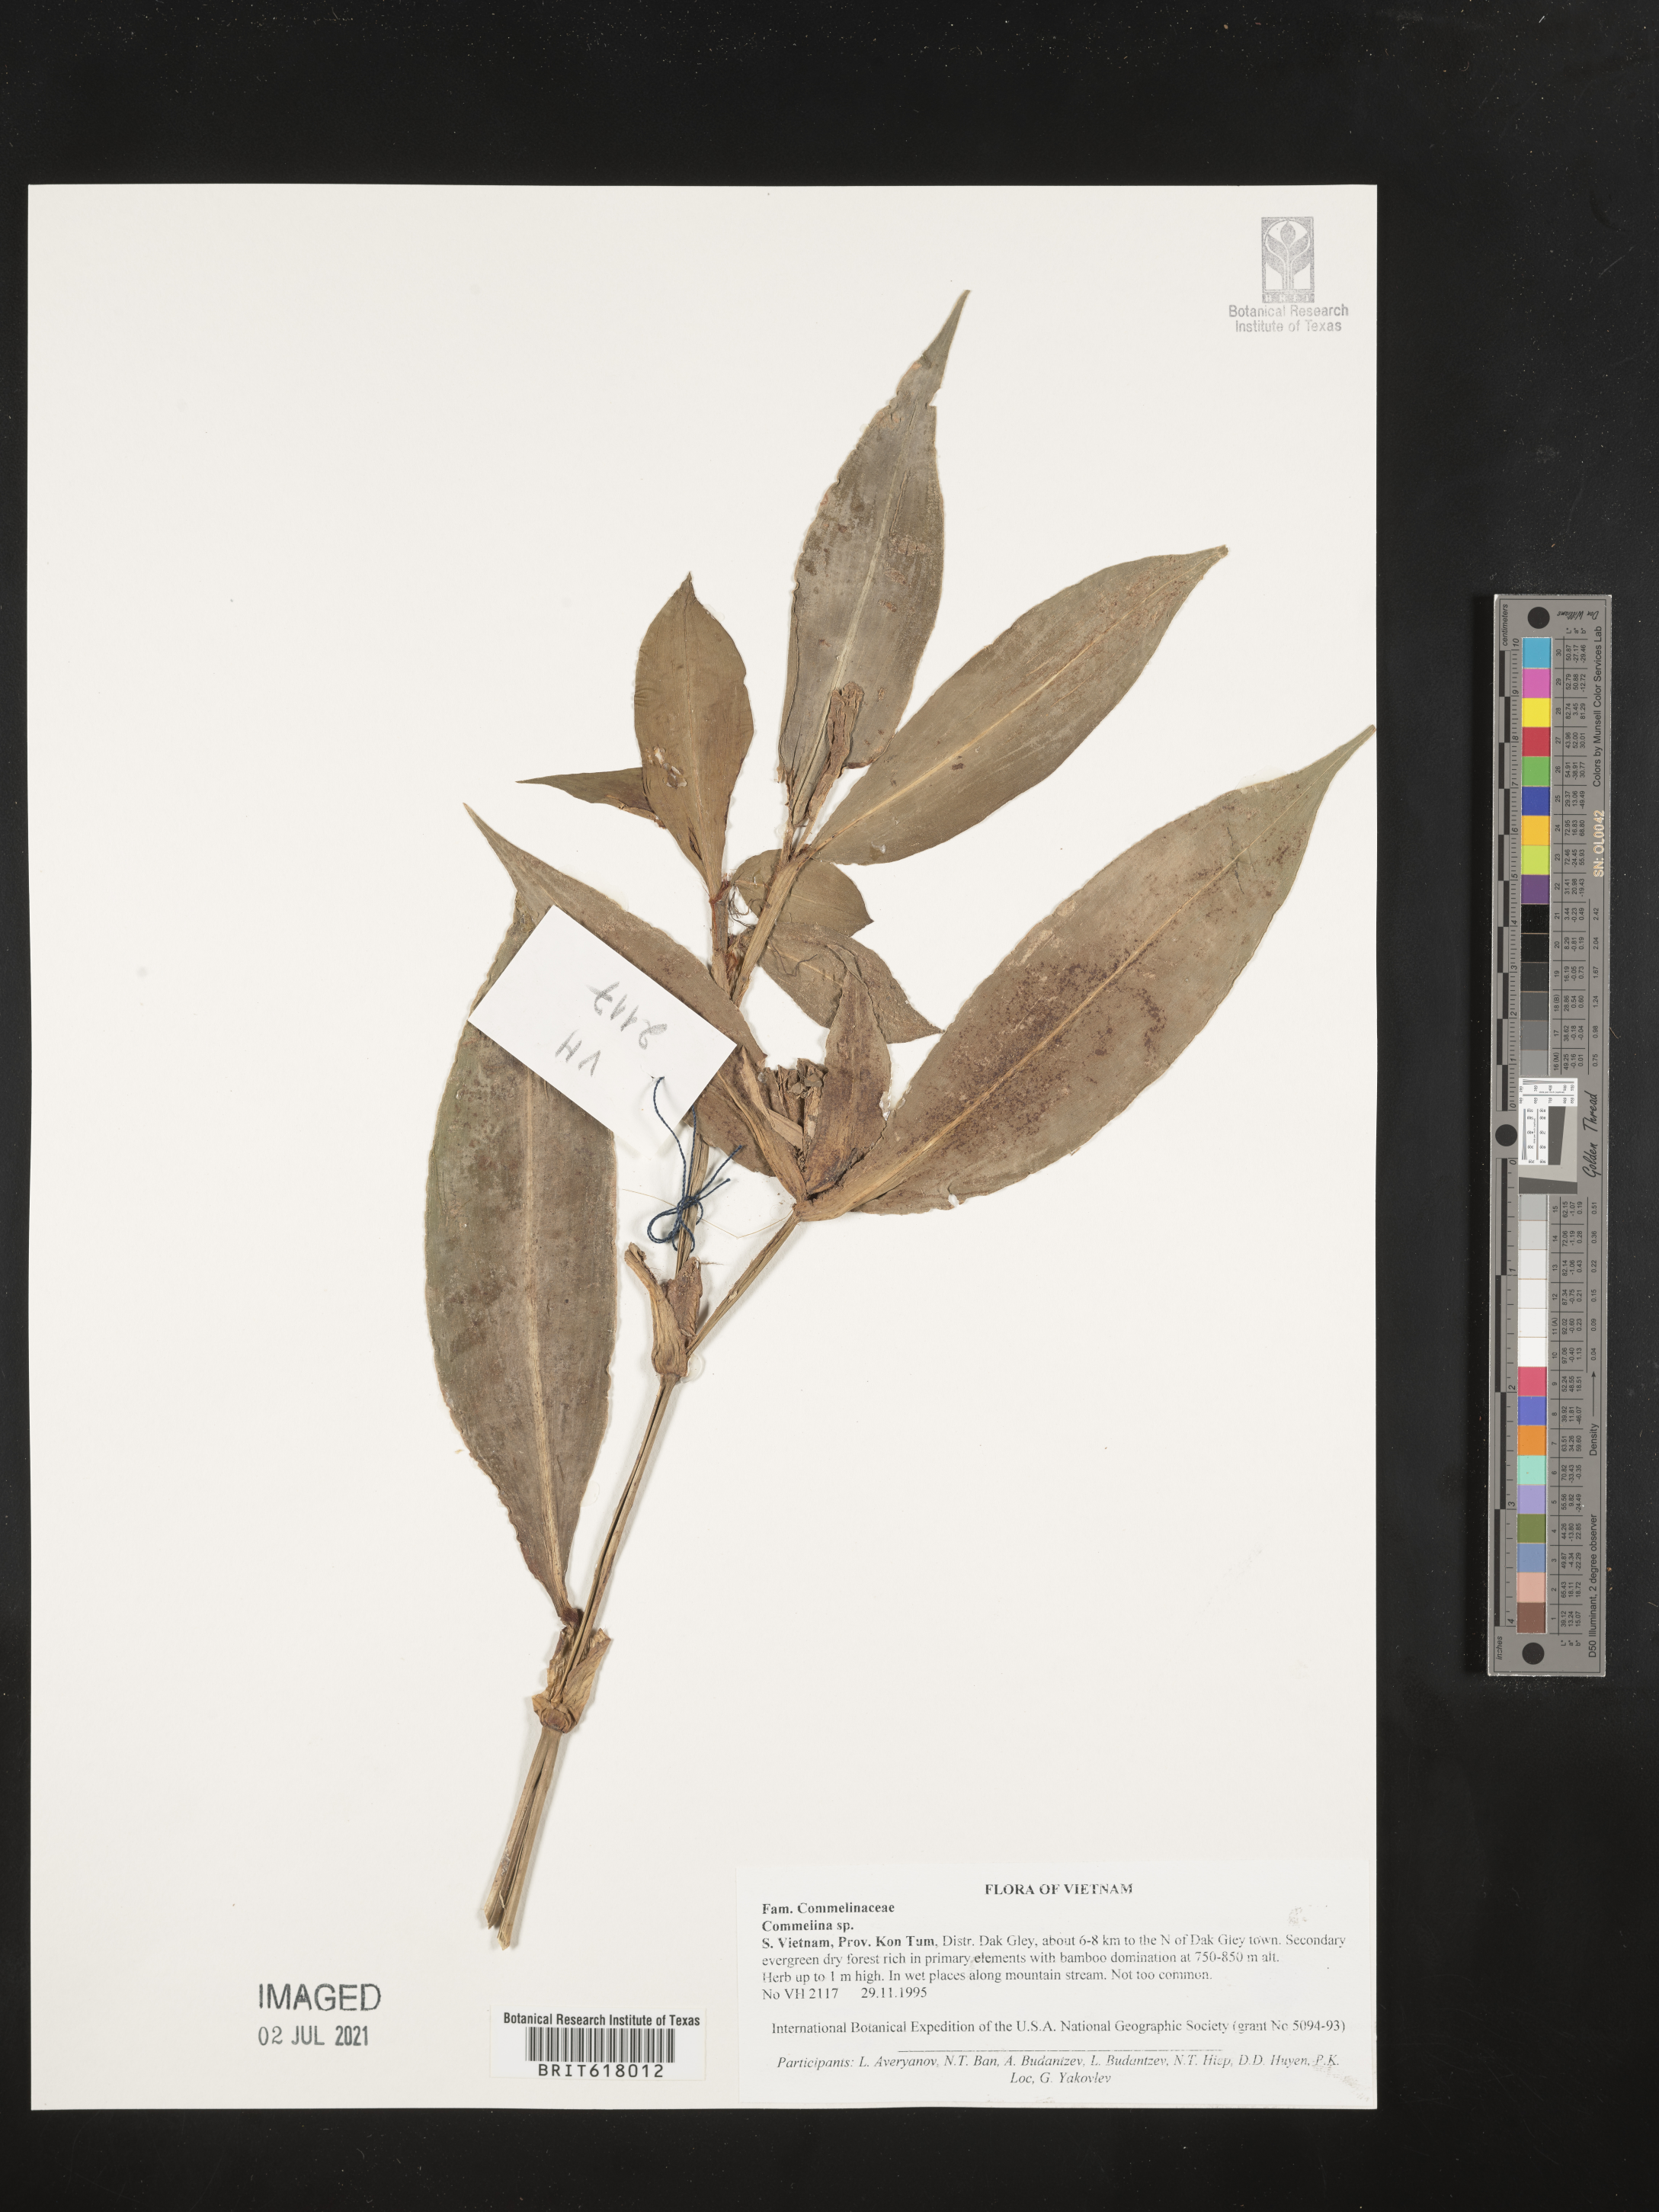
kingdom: Plantae
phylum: Tracheophyta
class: Liliopsida
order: Commelinales
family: Commelinaceae
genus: Commelina
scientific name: Commelina
